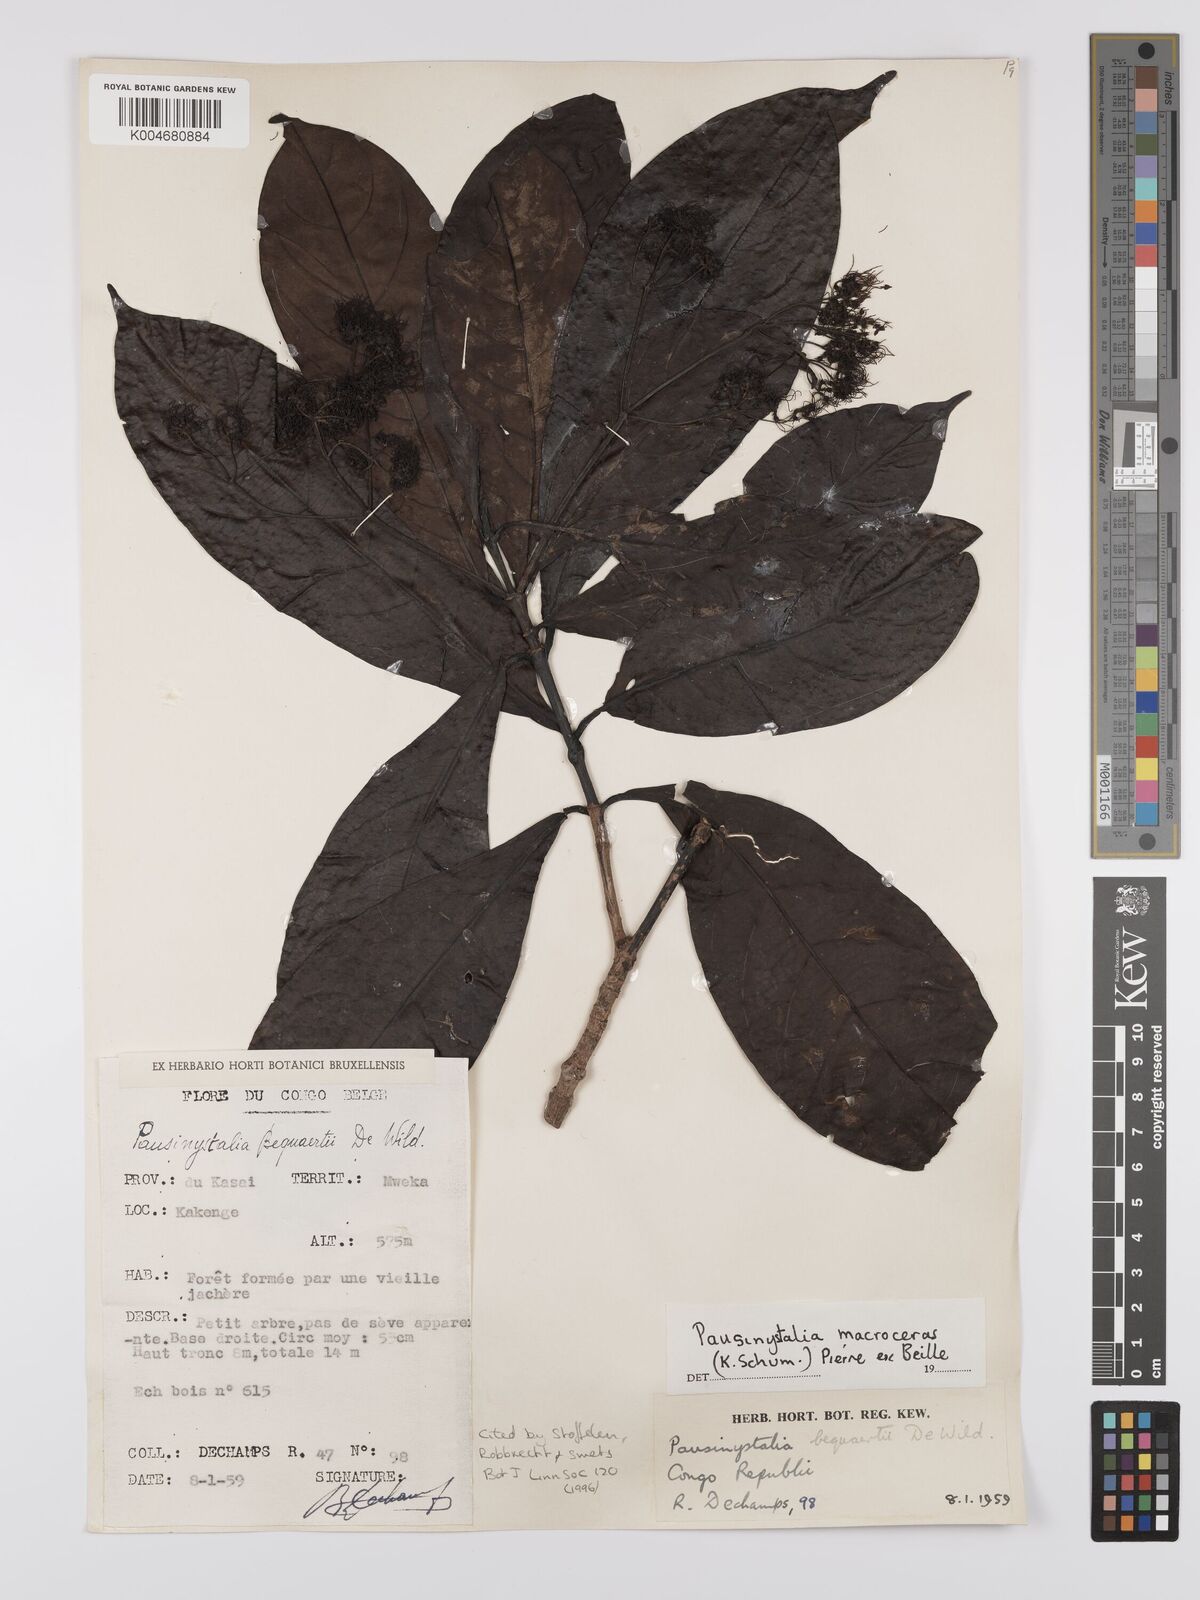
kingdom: Plantae
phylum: Tracheophyta
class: Magnoliopsida
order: Gentianales
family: Rubiaceae
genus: Corynanthe
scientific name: Corynanthe macroceras
